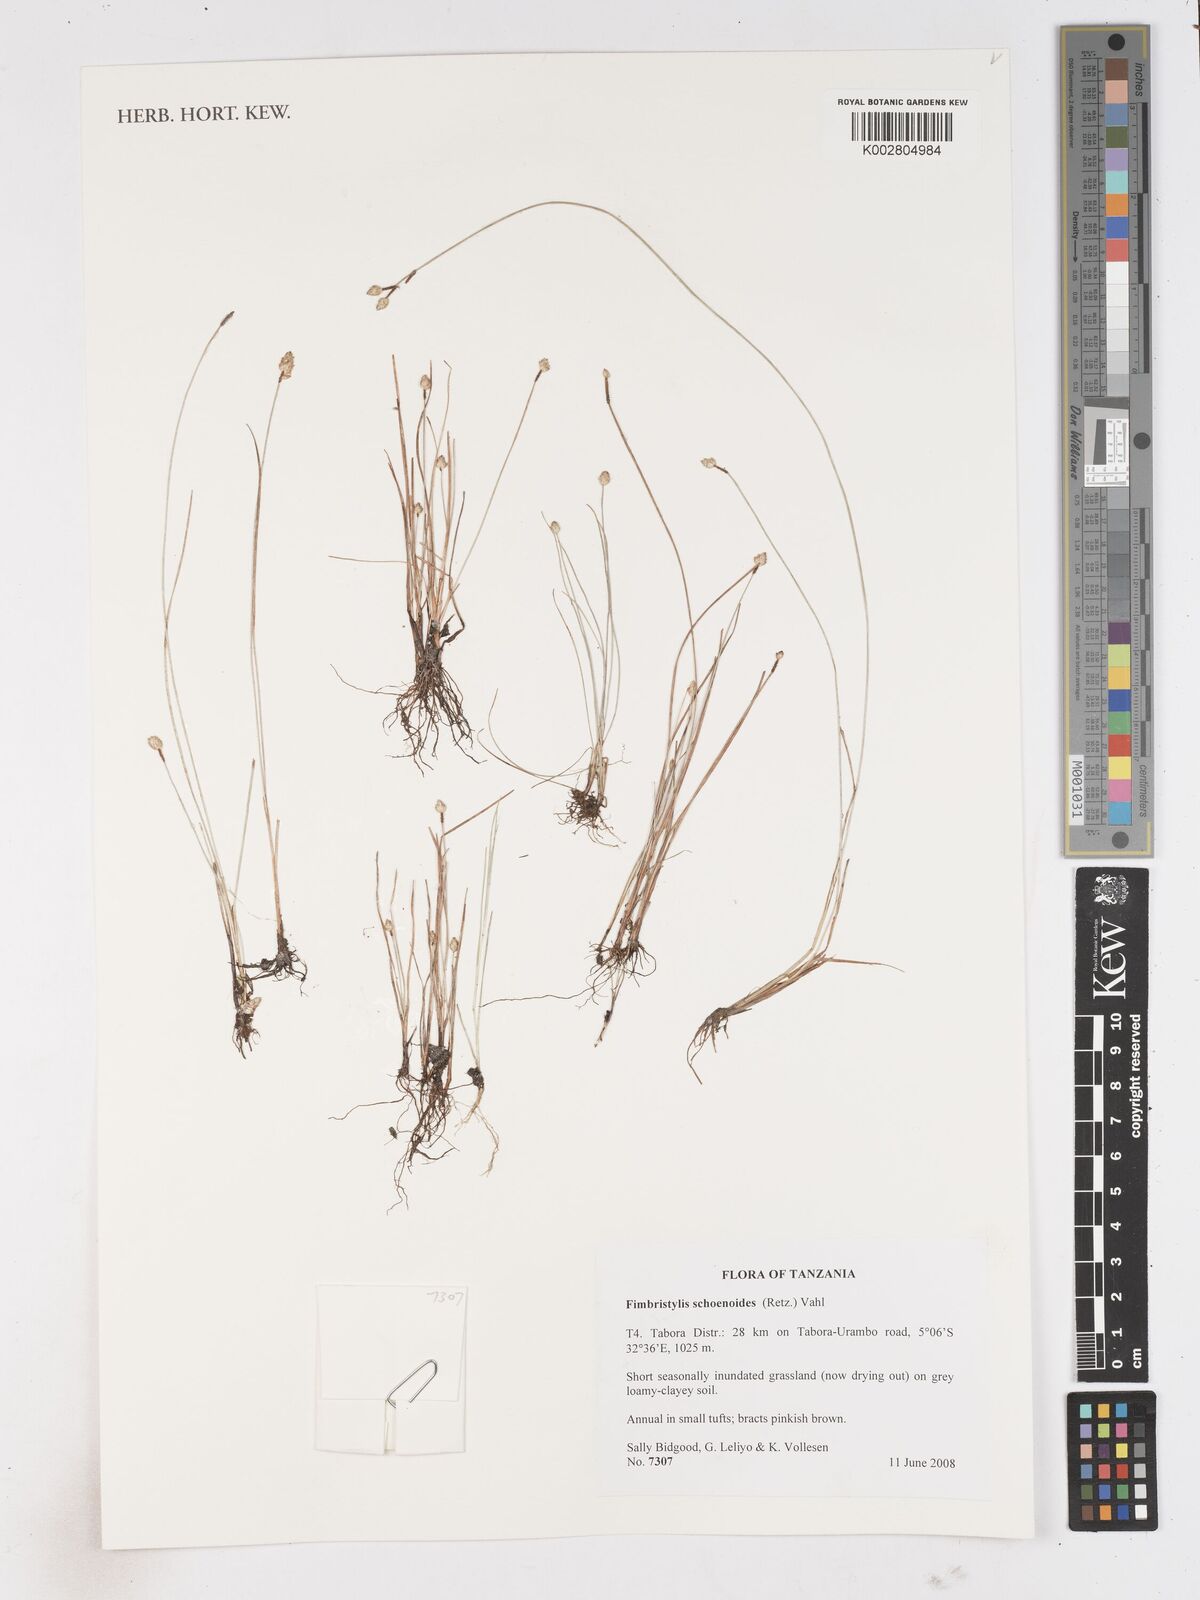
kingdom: Plantae
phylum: Tracheophyta
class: Liliopsida
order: Poales
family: Cyperaceae
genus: Fimbristylis
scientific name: Fimbristylis schoenoides
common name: Ditch fimbry
